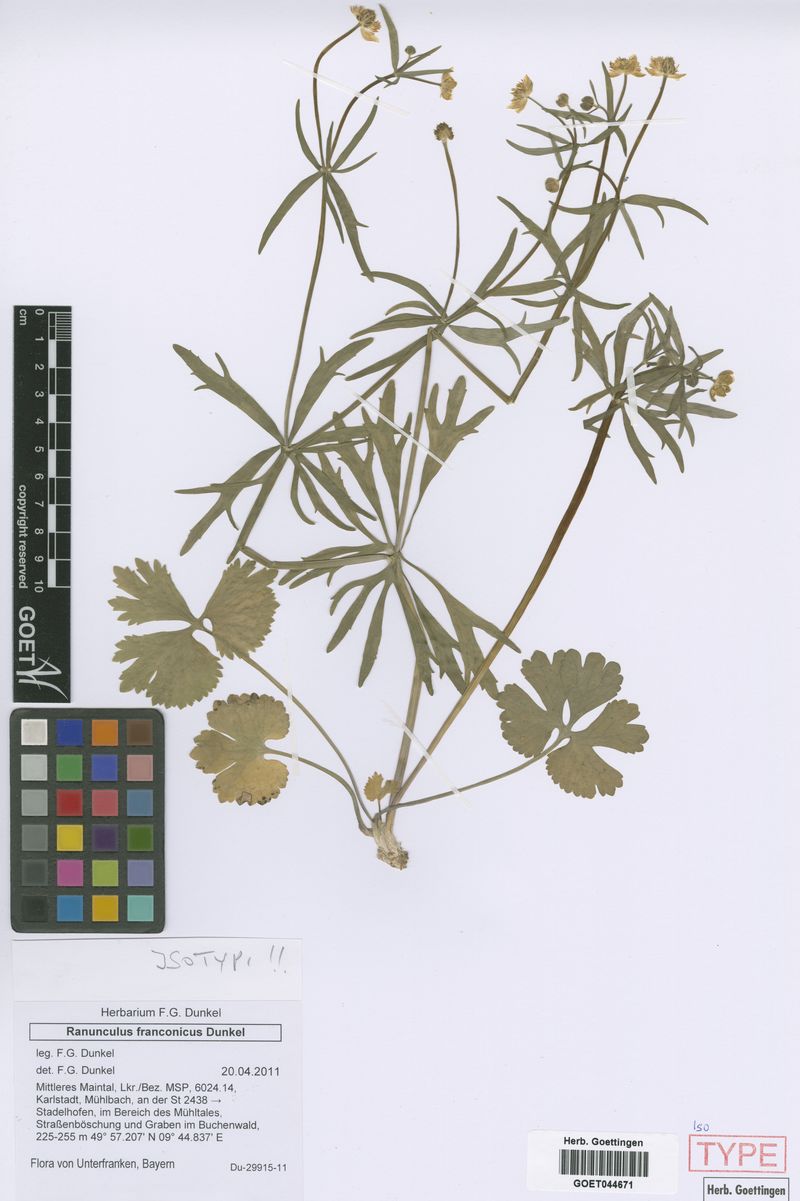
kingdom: Plantae
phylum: Tracheophyta
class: Magnoliopsida
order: Ranunculales
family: Ranunculaceae
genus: Ranunculus
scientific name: Ranunculus franconicus
